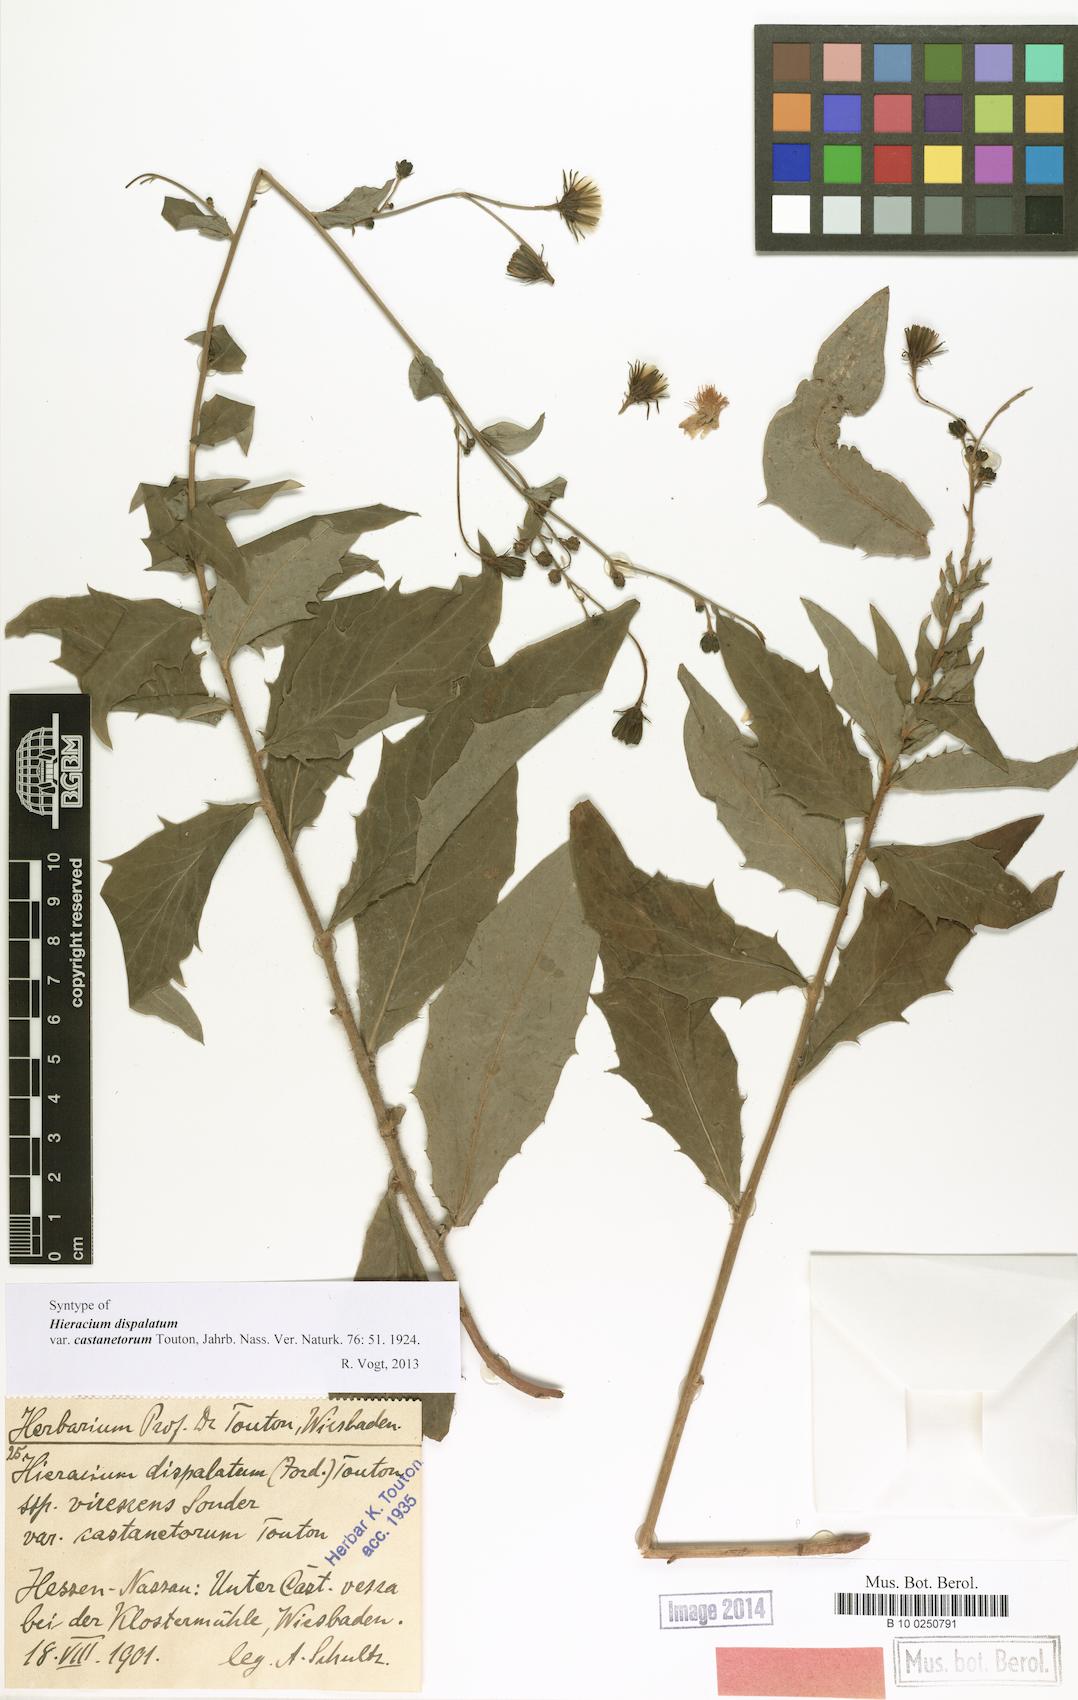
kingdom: Plantae
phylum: Tracheophyta
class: Magnoliopsida
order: Asterales
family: Asteraceae
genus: Hieracium
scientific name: Hieracium sabaudum
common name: New england hawkweed
